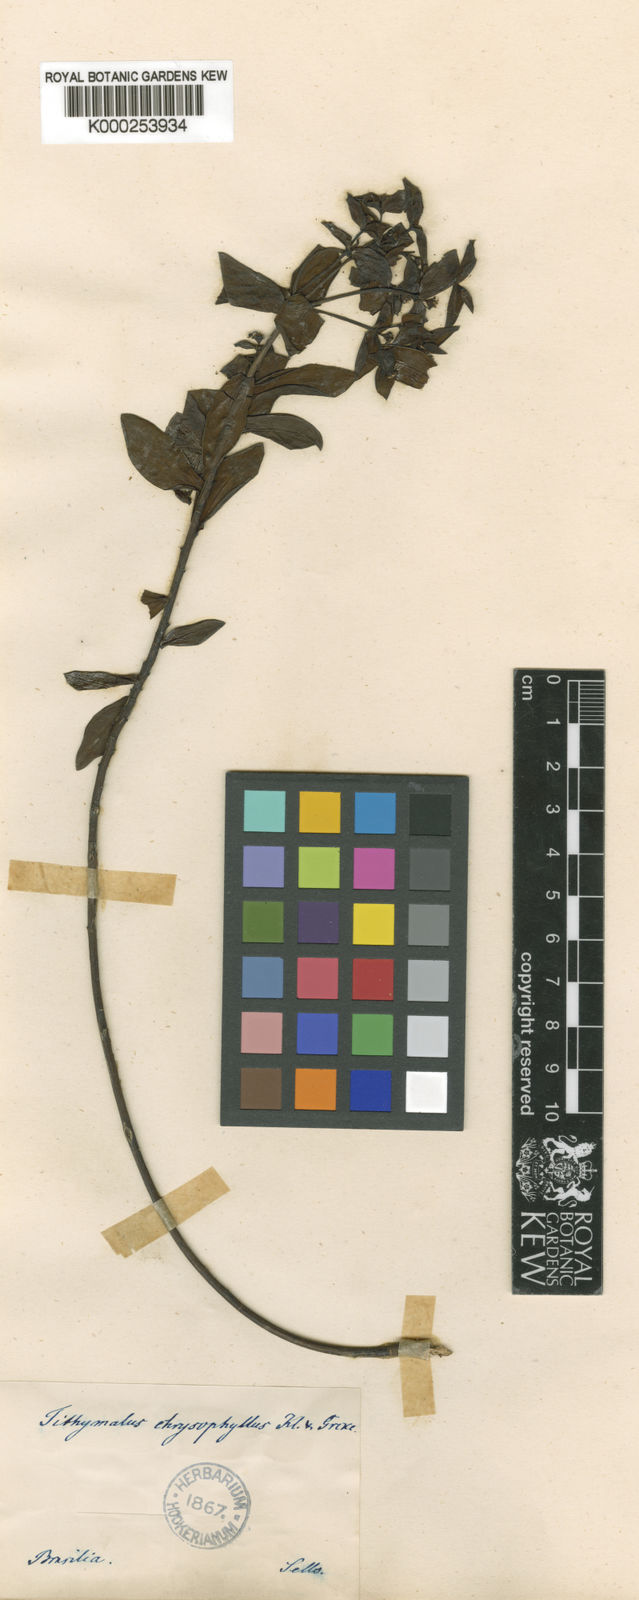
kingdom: Plantae
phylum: Tracheophyta
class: Magnoliopsida
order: Malpighiales
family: Euphorbiaceae
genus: Euphorbia
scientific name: Euphorbia collina
